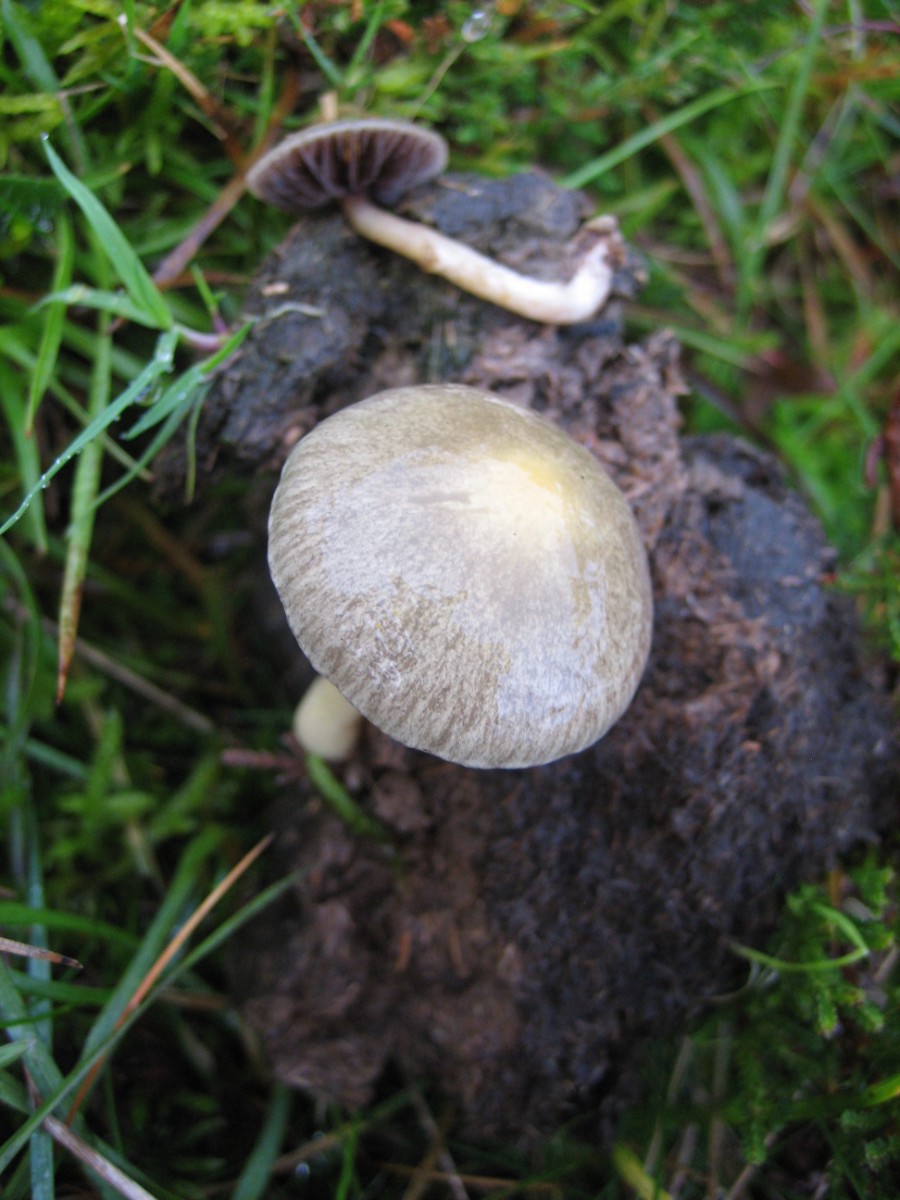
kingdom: Fungi
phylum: Basidiomycota
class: Agaricomycetes
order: Agaricales
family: Strophariaceae
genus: Protostropharia
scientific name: Protostropharia semiglobata
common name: halvkugleformet bredblad
